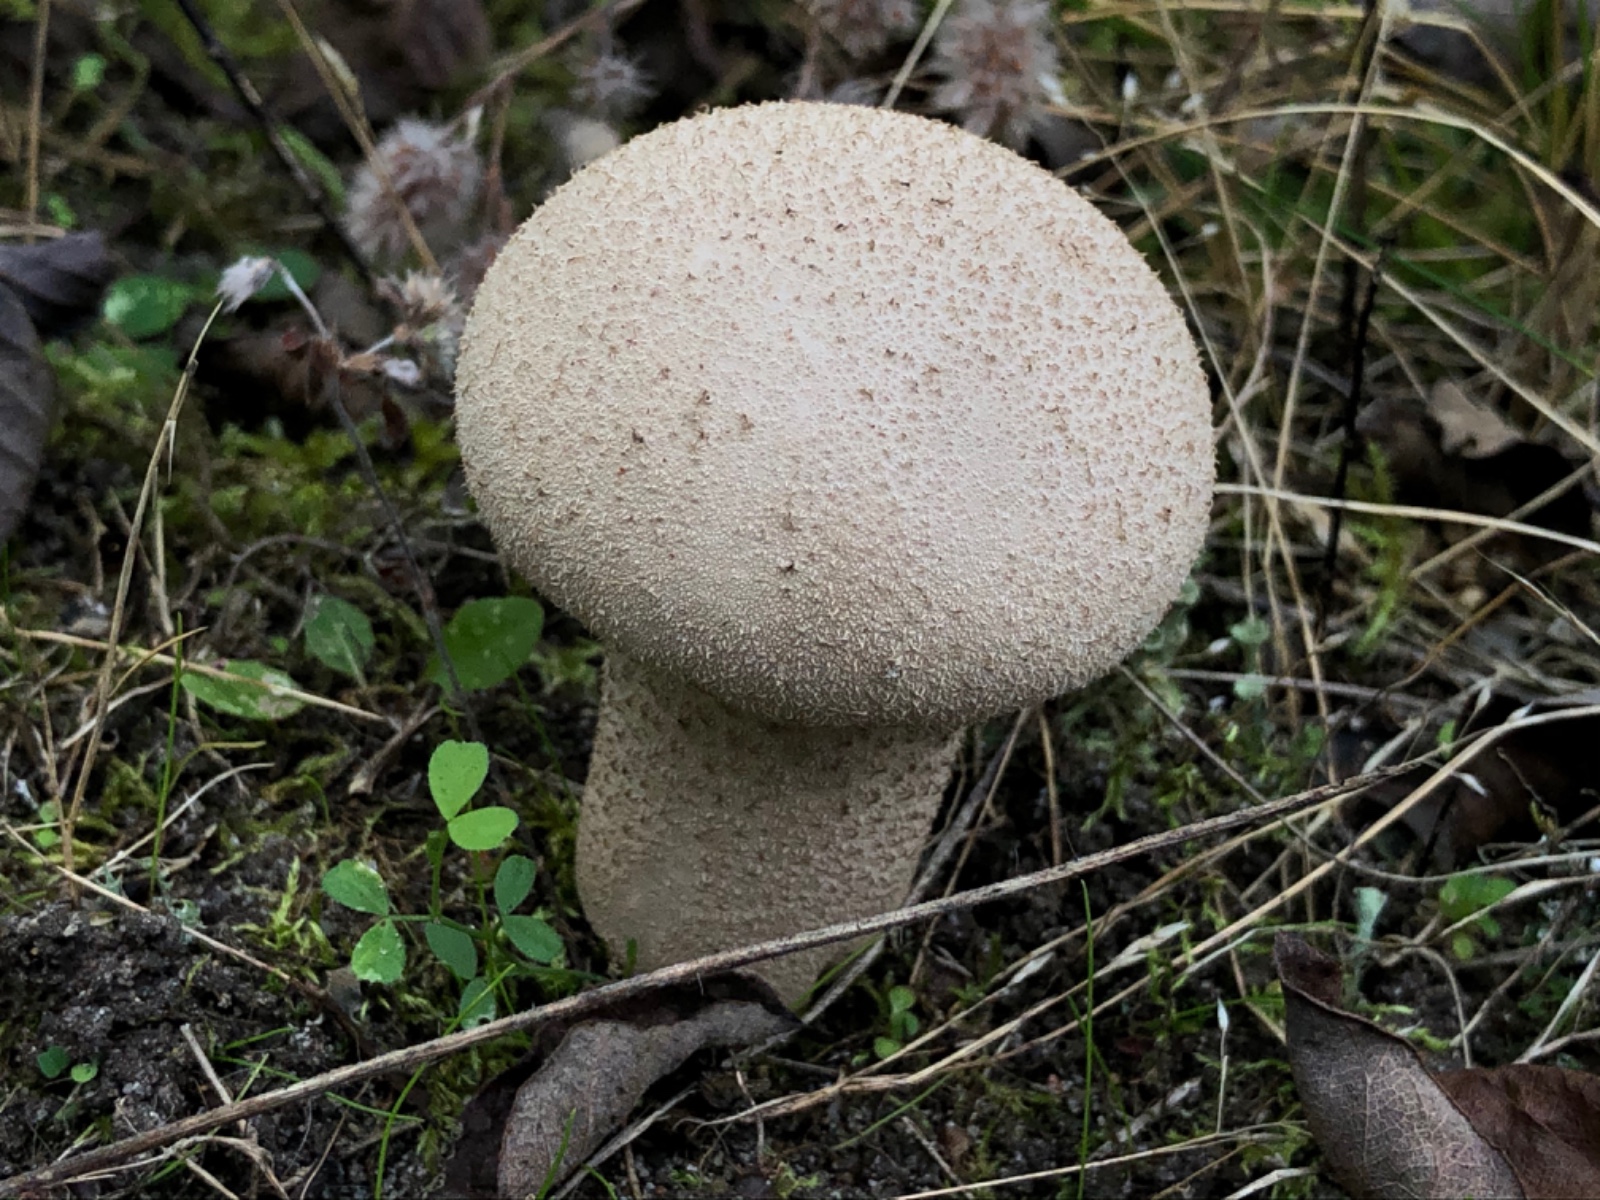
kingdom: Fungi
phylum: Basidiomycota
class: Agaricomycetes
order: Agaricales
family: Lycoperdaceae
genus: Lycoperdon
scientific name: Lycoperdon excipuliforme
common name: højstokket støvbold
